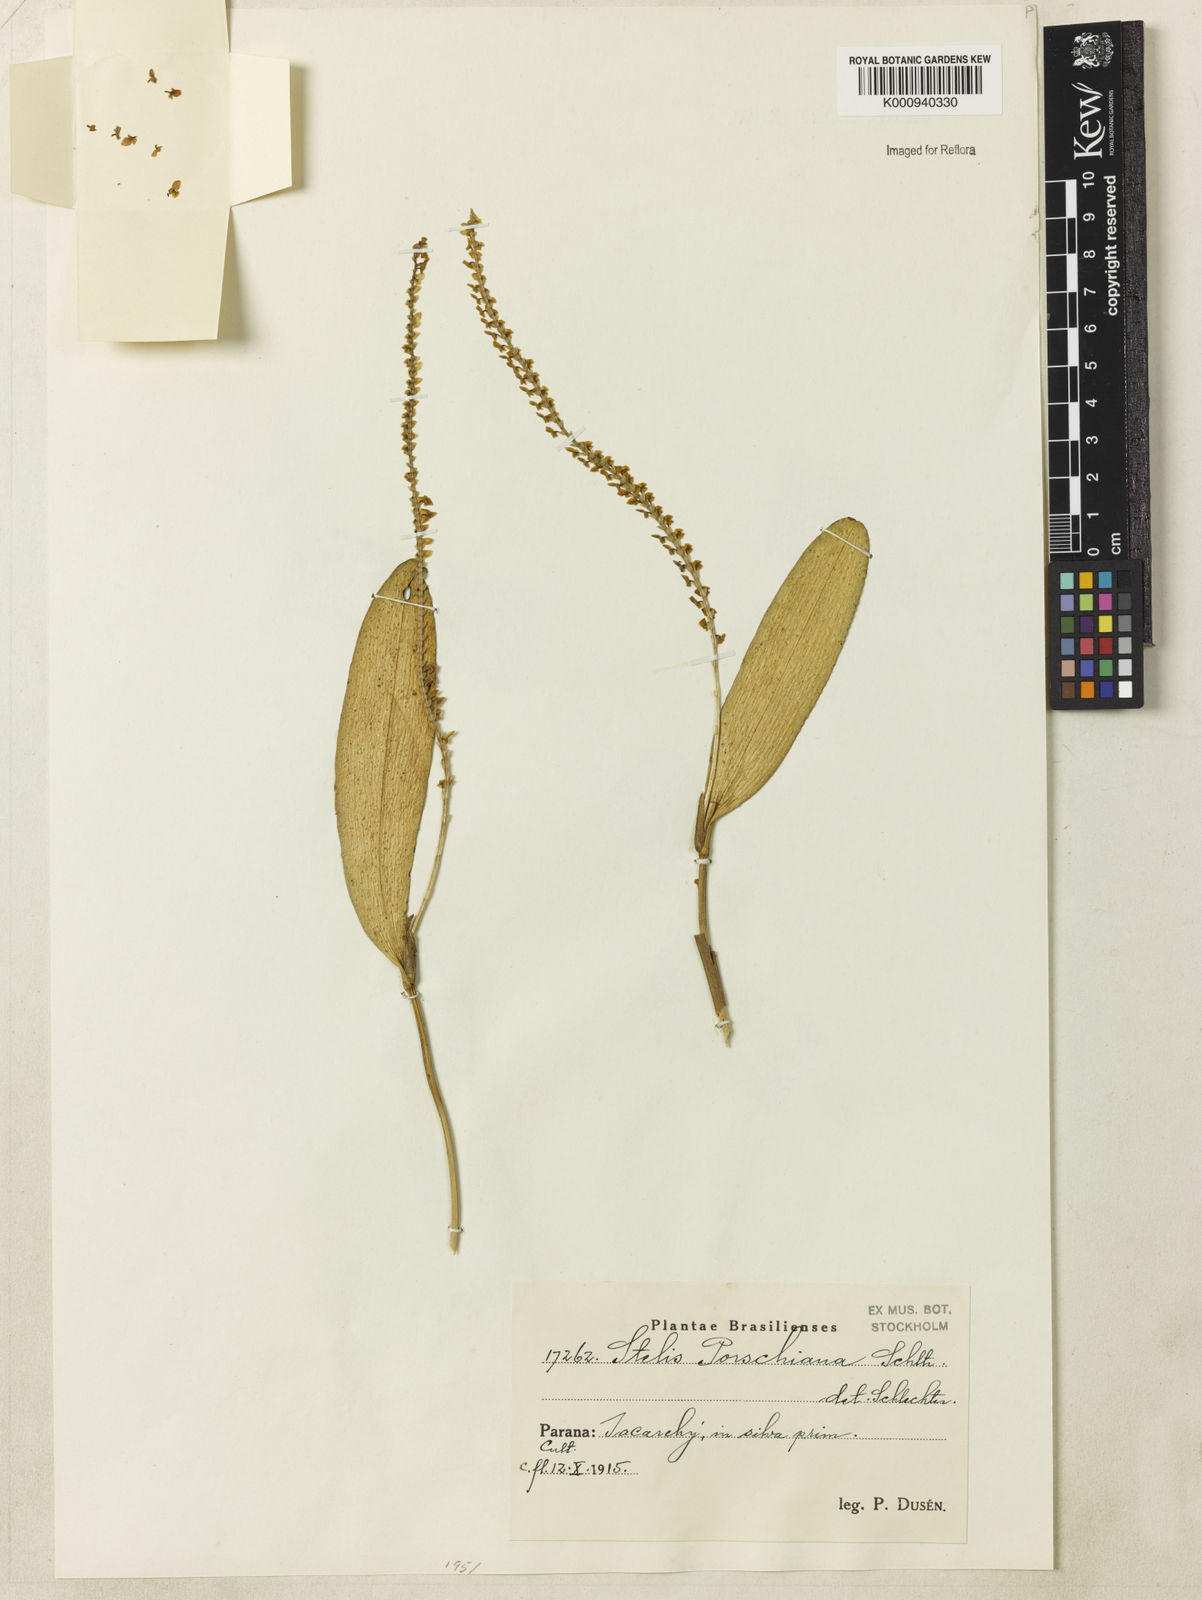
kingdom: Plantae
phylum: Tracheophyta
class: Liliopsida
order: Asparagales
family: Orchidaceae
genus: Stelis
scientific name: Stelis papaquerensis
